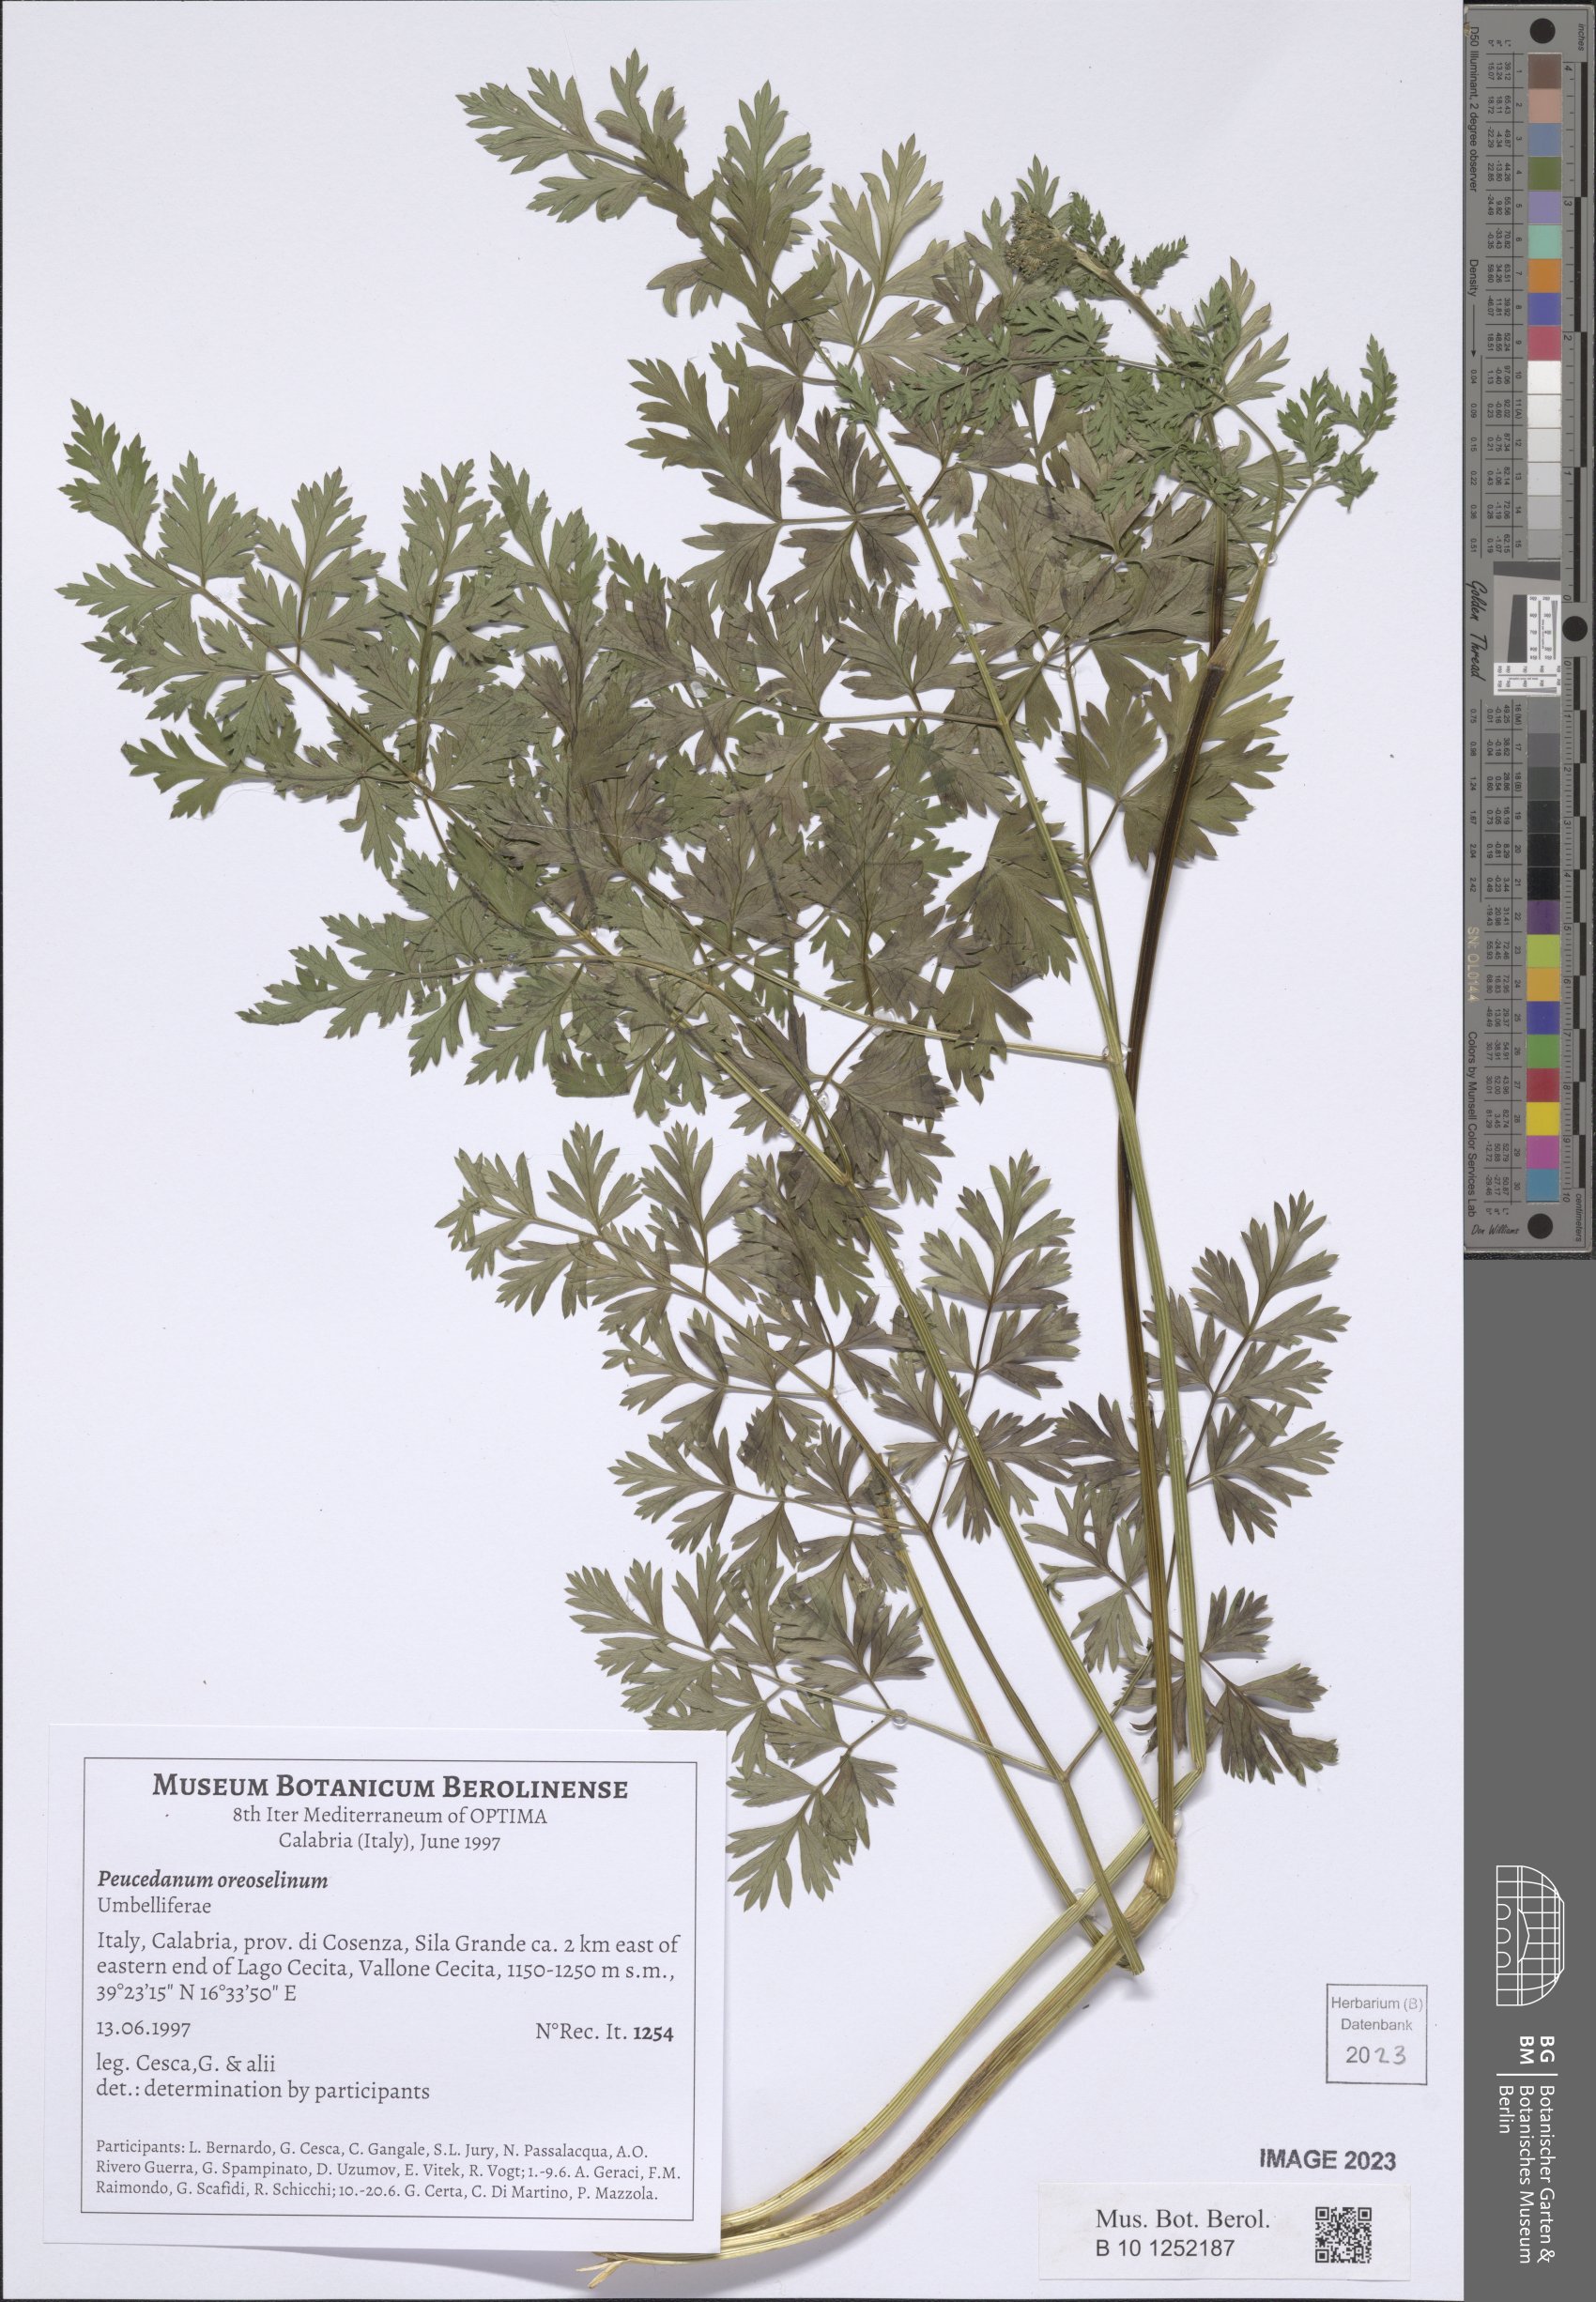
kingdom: Plantae
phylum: Tracheophyta
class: Magnoliopsida
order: Apiales
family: Apiaceae
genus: Oreoselinum
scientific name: Oreoselinum nigrum
